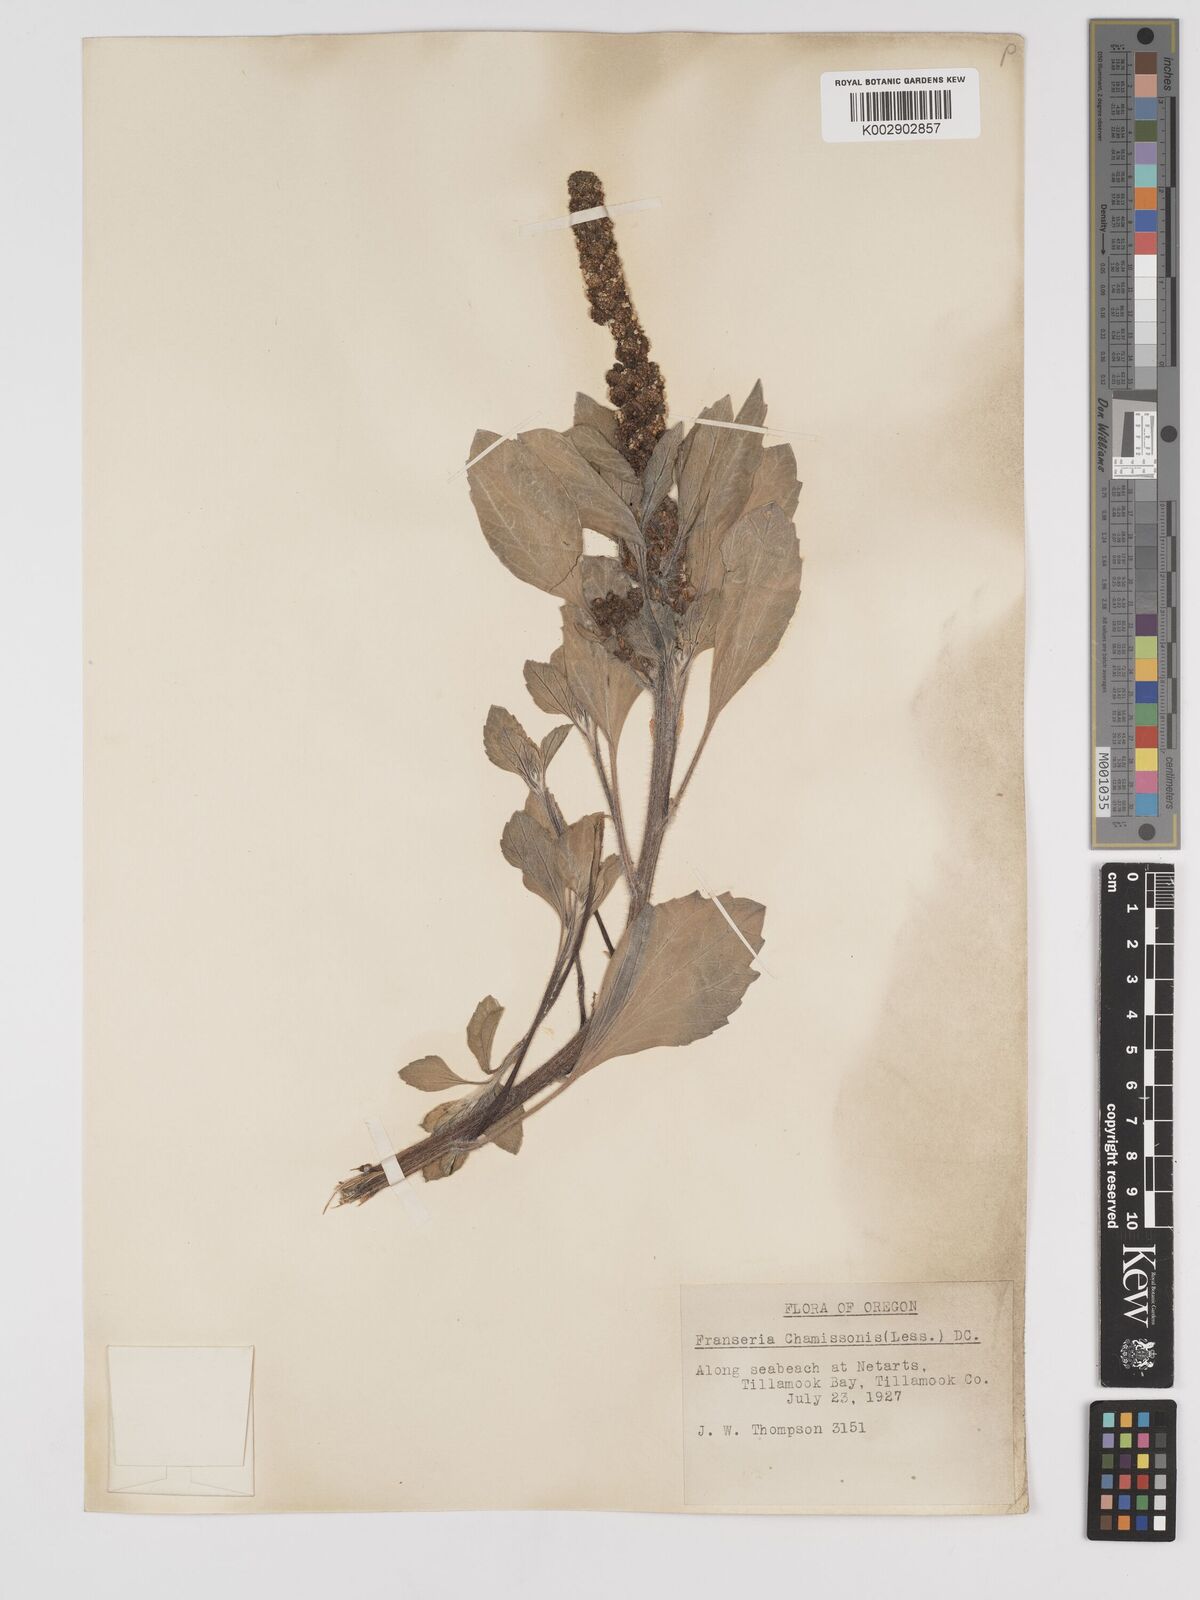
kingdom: Plantae
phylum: Tracheophyta
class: Magnoliopsida
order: Asterales
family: Asteraceae
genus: Ambrosia
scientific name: Ambrosia chamissonis
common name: Beachbur
